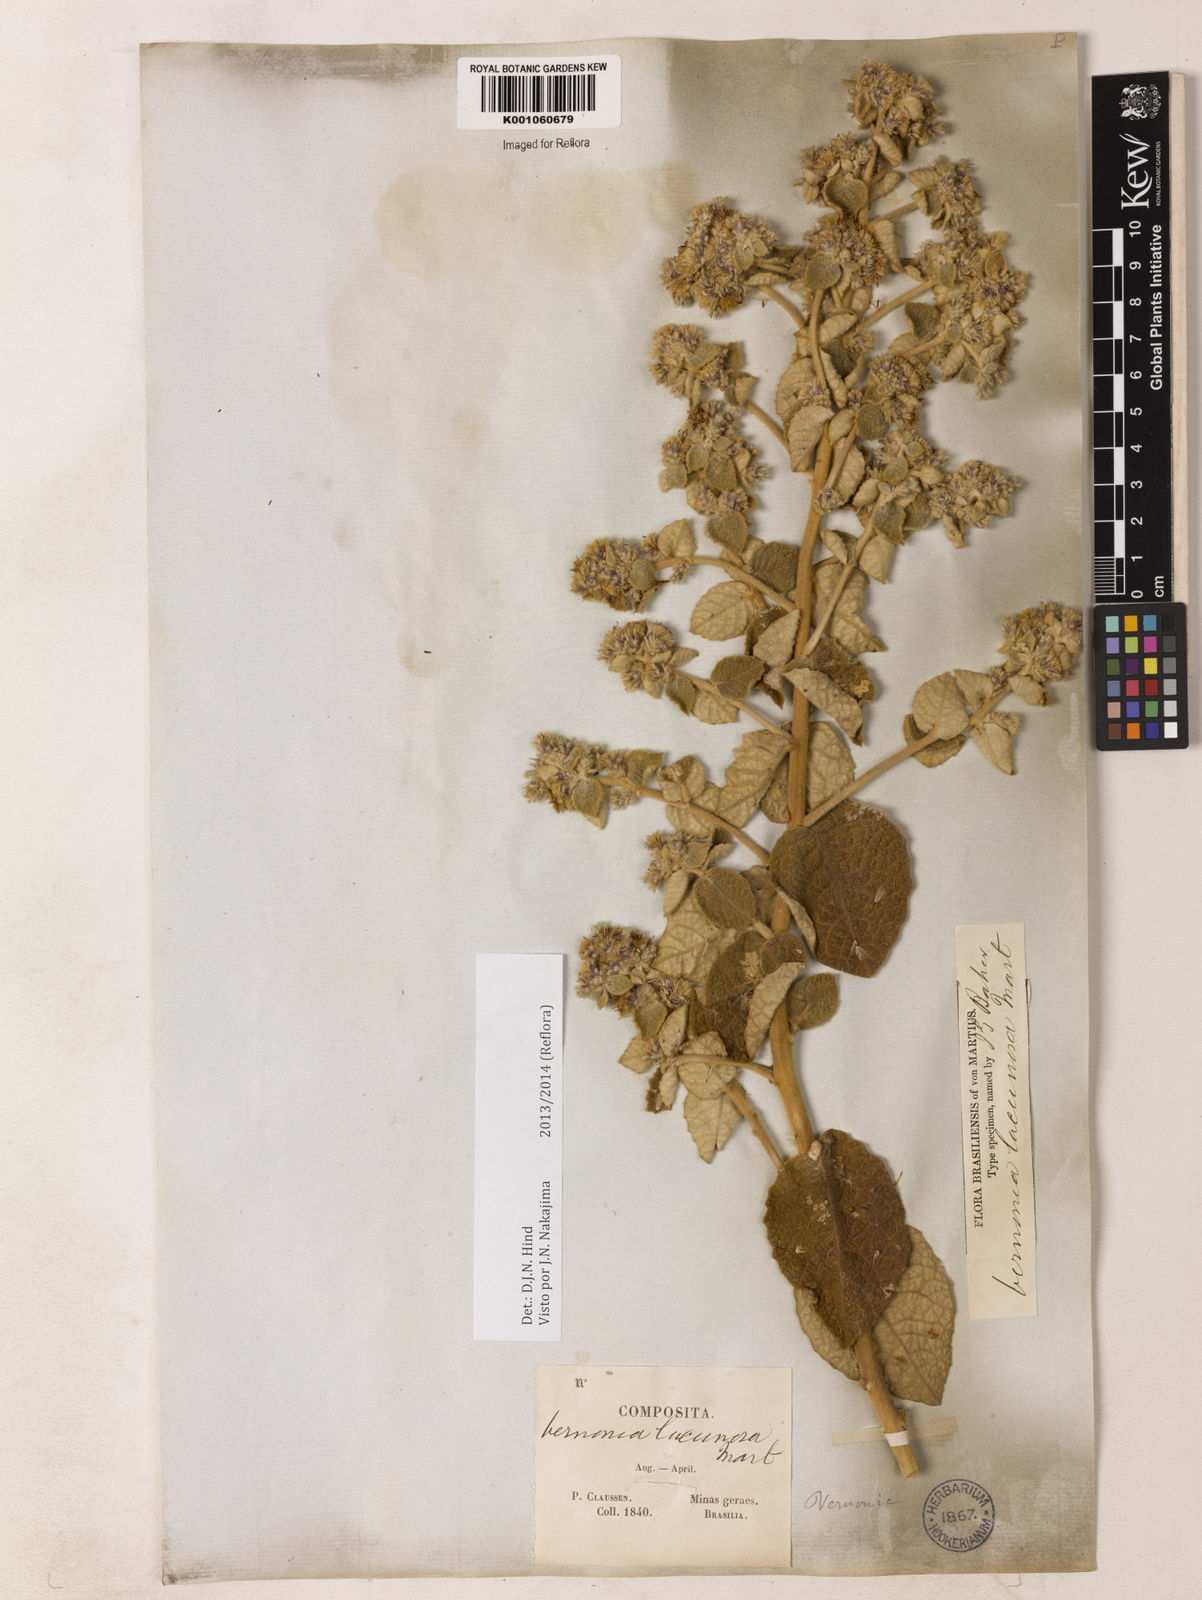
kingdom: Plantae
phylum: Tracheophyta
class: Magnoliopsida
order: Asterales
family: Asteraceae
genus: Lessingianthus
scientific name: Lessingianthus lacunosus
